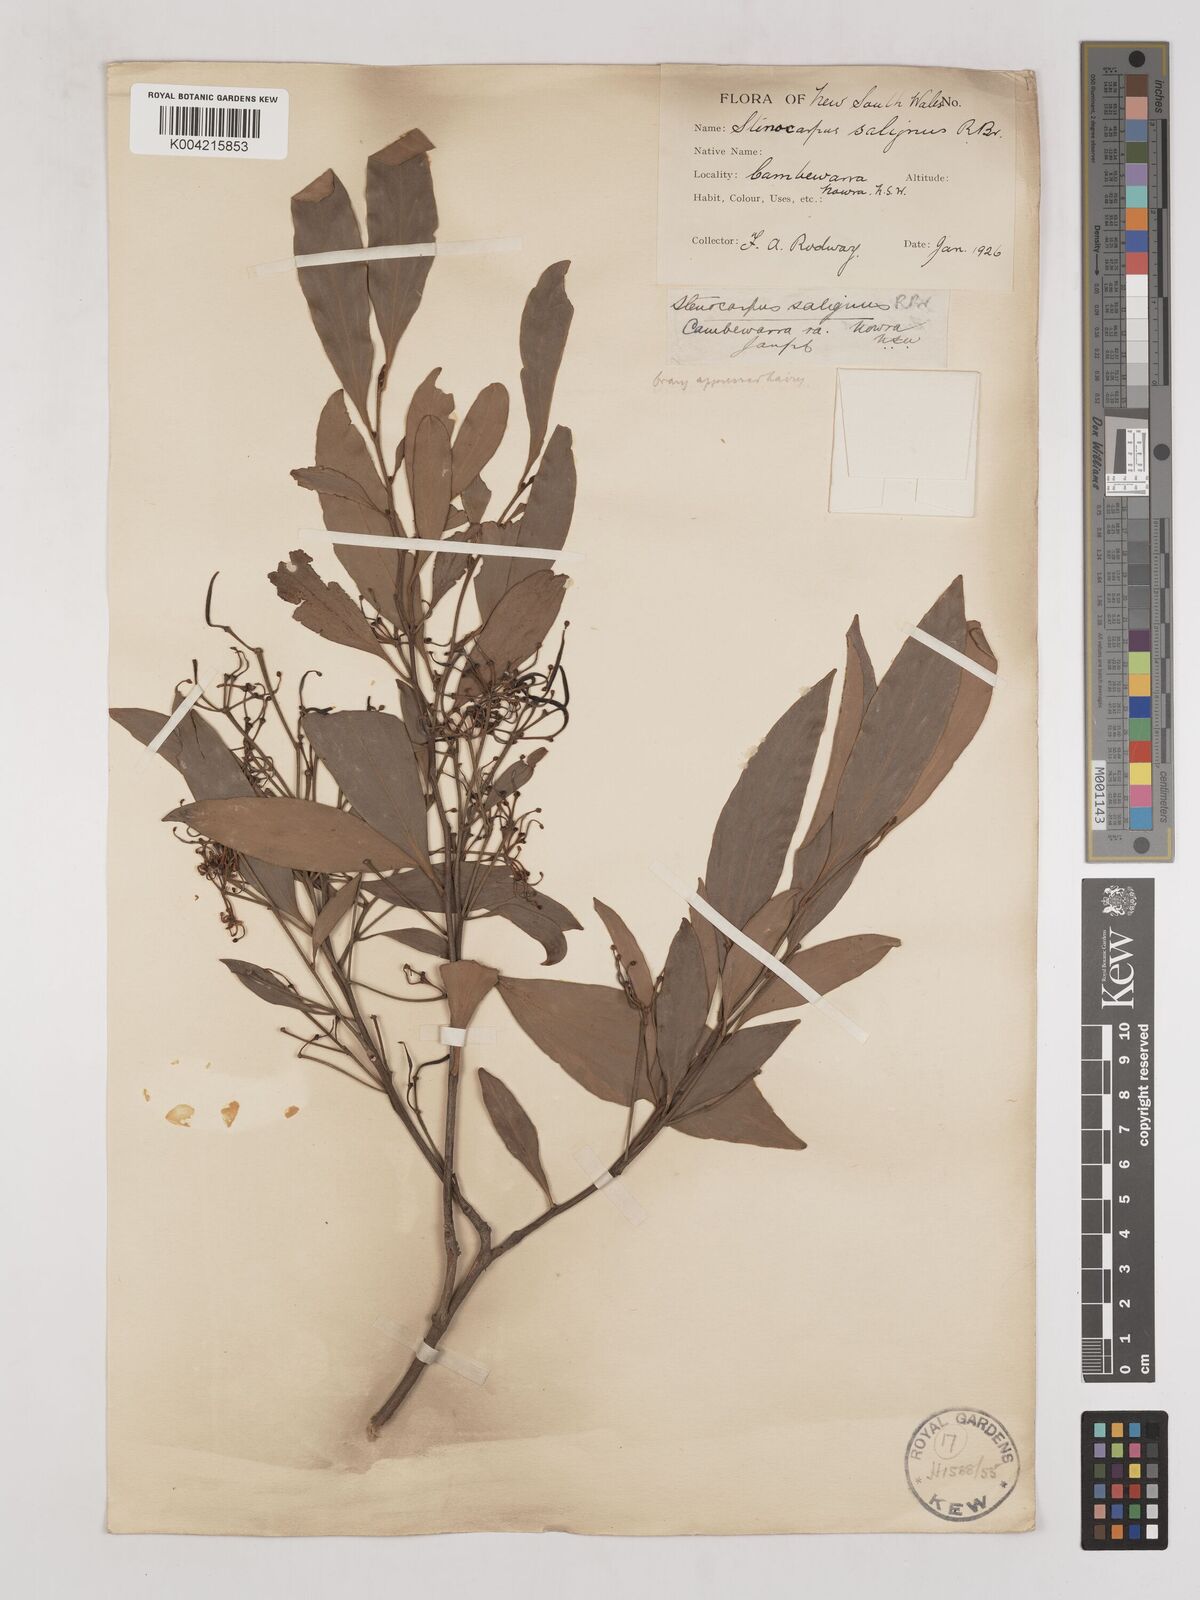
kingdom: Plantae
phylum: Tracheophyta
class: Magnoliopsida
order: Proteales
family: Proteaceae
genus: Stenocarpus
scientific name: Stenocarpus salignus
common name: Red silky-oak
